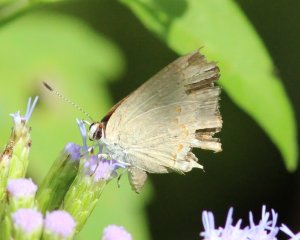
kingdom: Animalia
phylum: Arthropoda
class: Insecta
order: Lepidoptera
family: Lycaenidae
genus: Thecla
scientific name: Thecla rufofusca
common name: Red-crescent Scrub-Hairstreak
